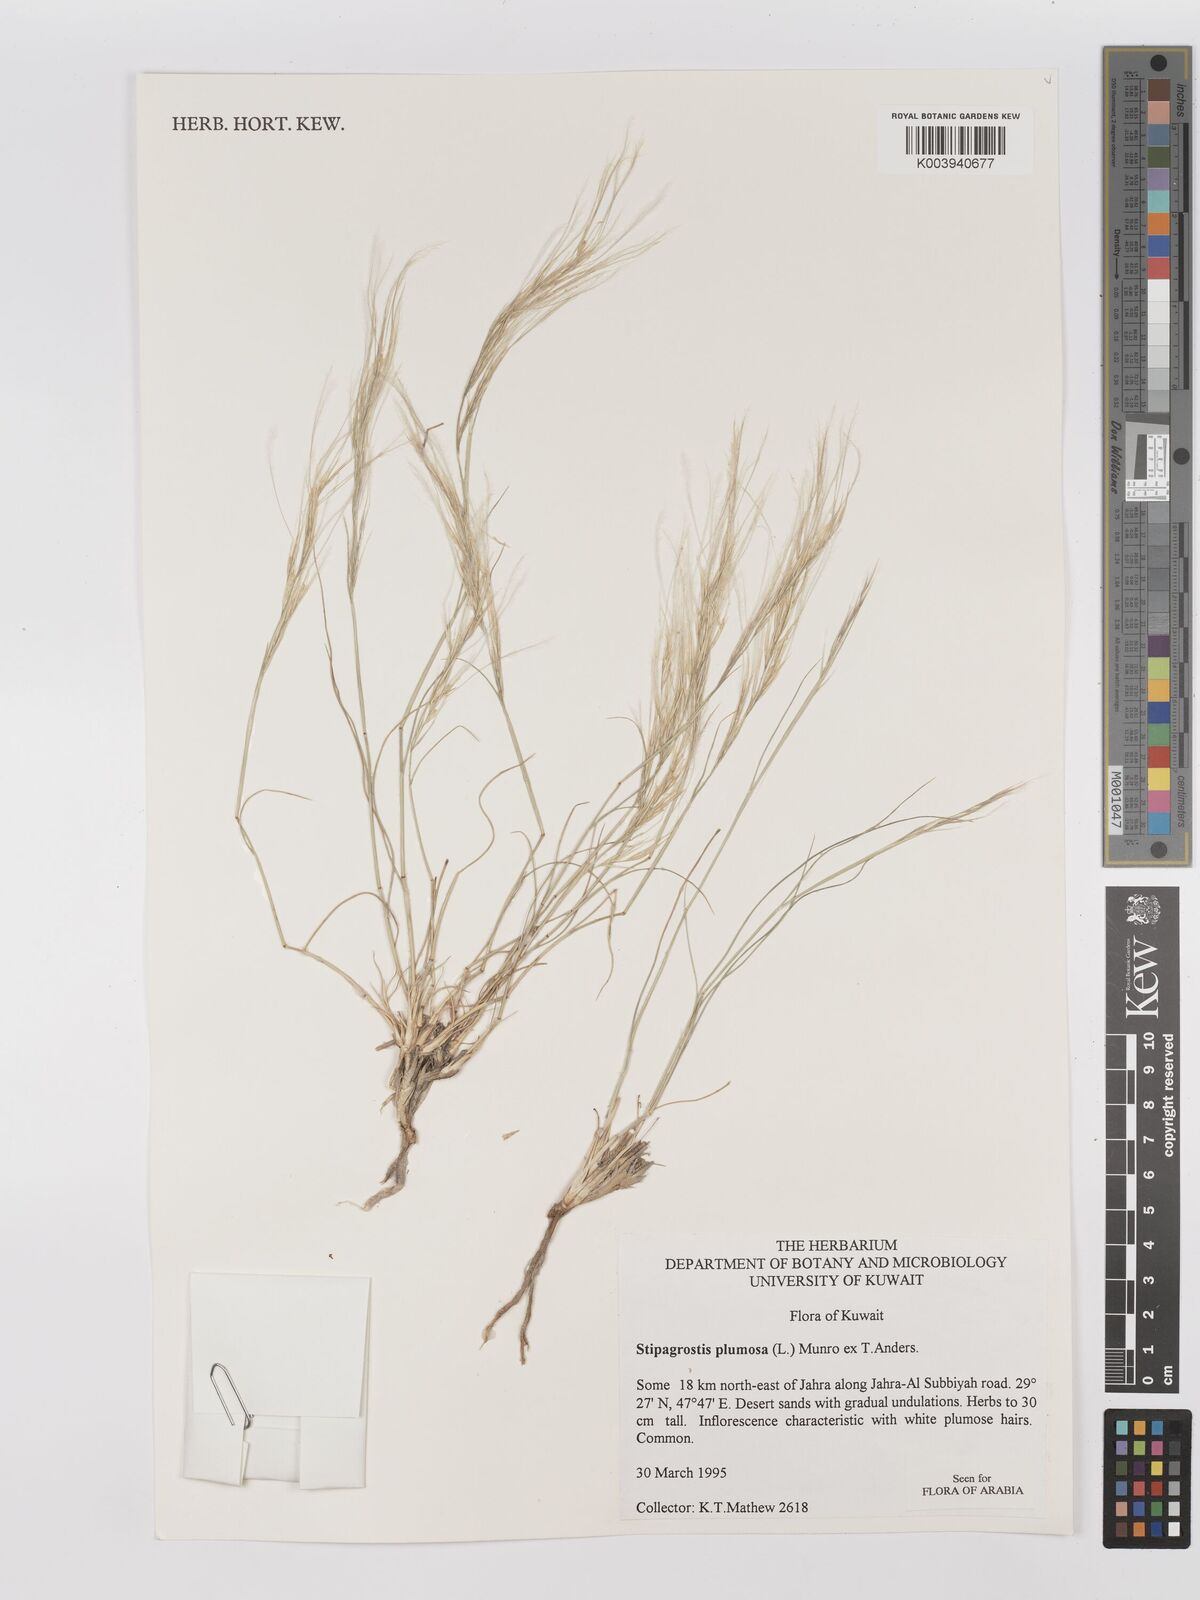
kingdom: Plantae
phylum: Tracheophyta
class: Liliopsida
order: Poales
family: Poaceae
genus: Stipagrostis
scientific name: Stipagrostis plumosa
